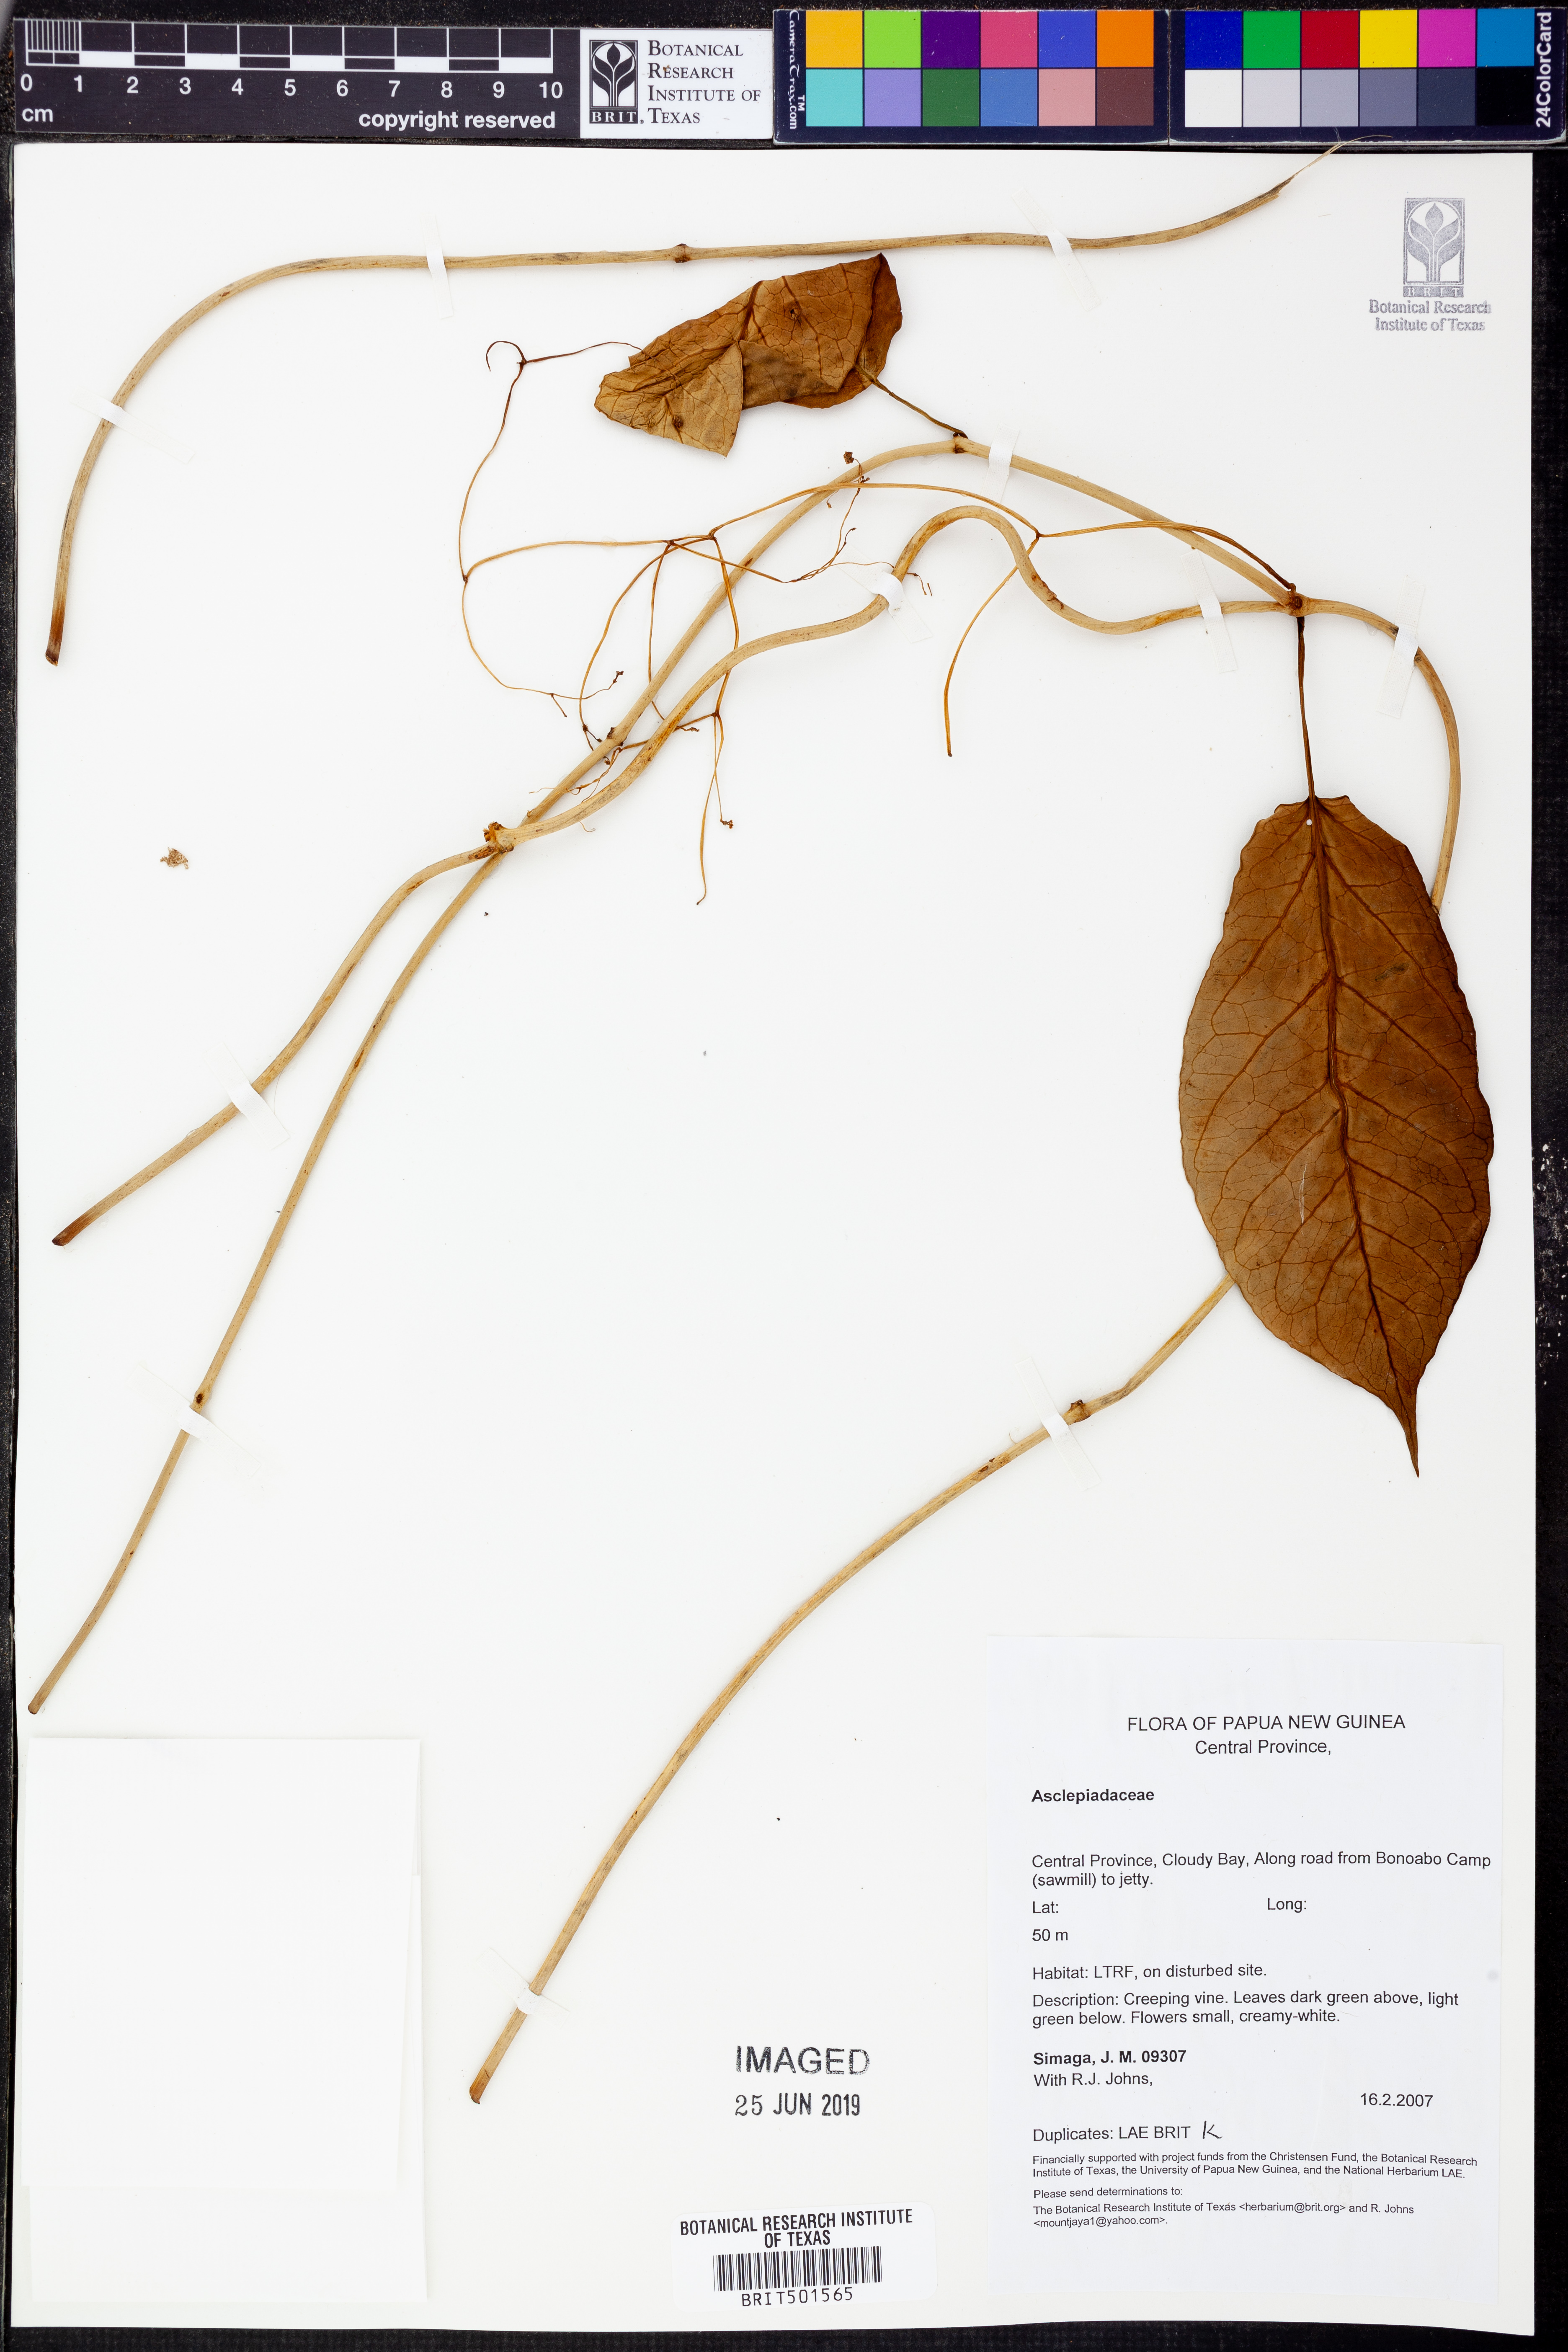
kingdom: Plantae
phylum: Tracheophyta
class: Magnoliopsida
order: Gentianales
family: Apocynaceae
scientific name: Apocynaceae
